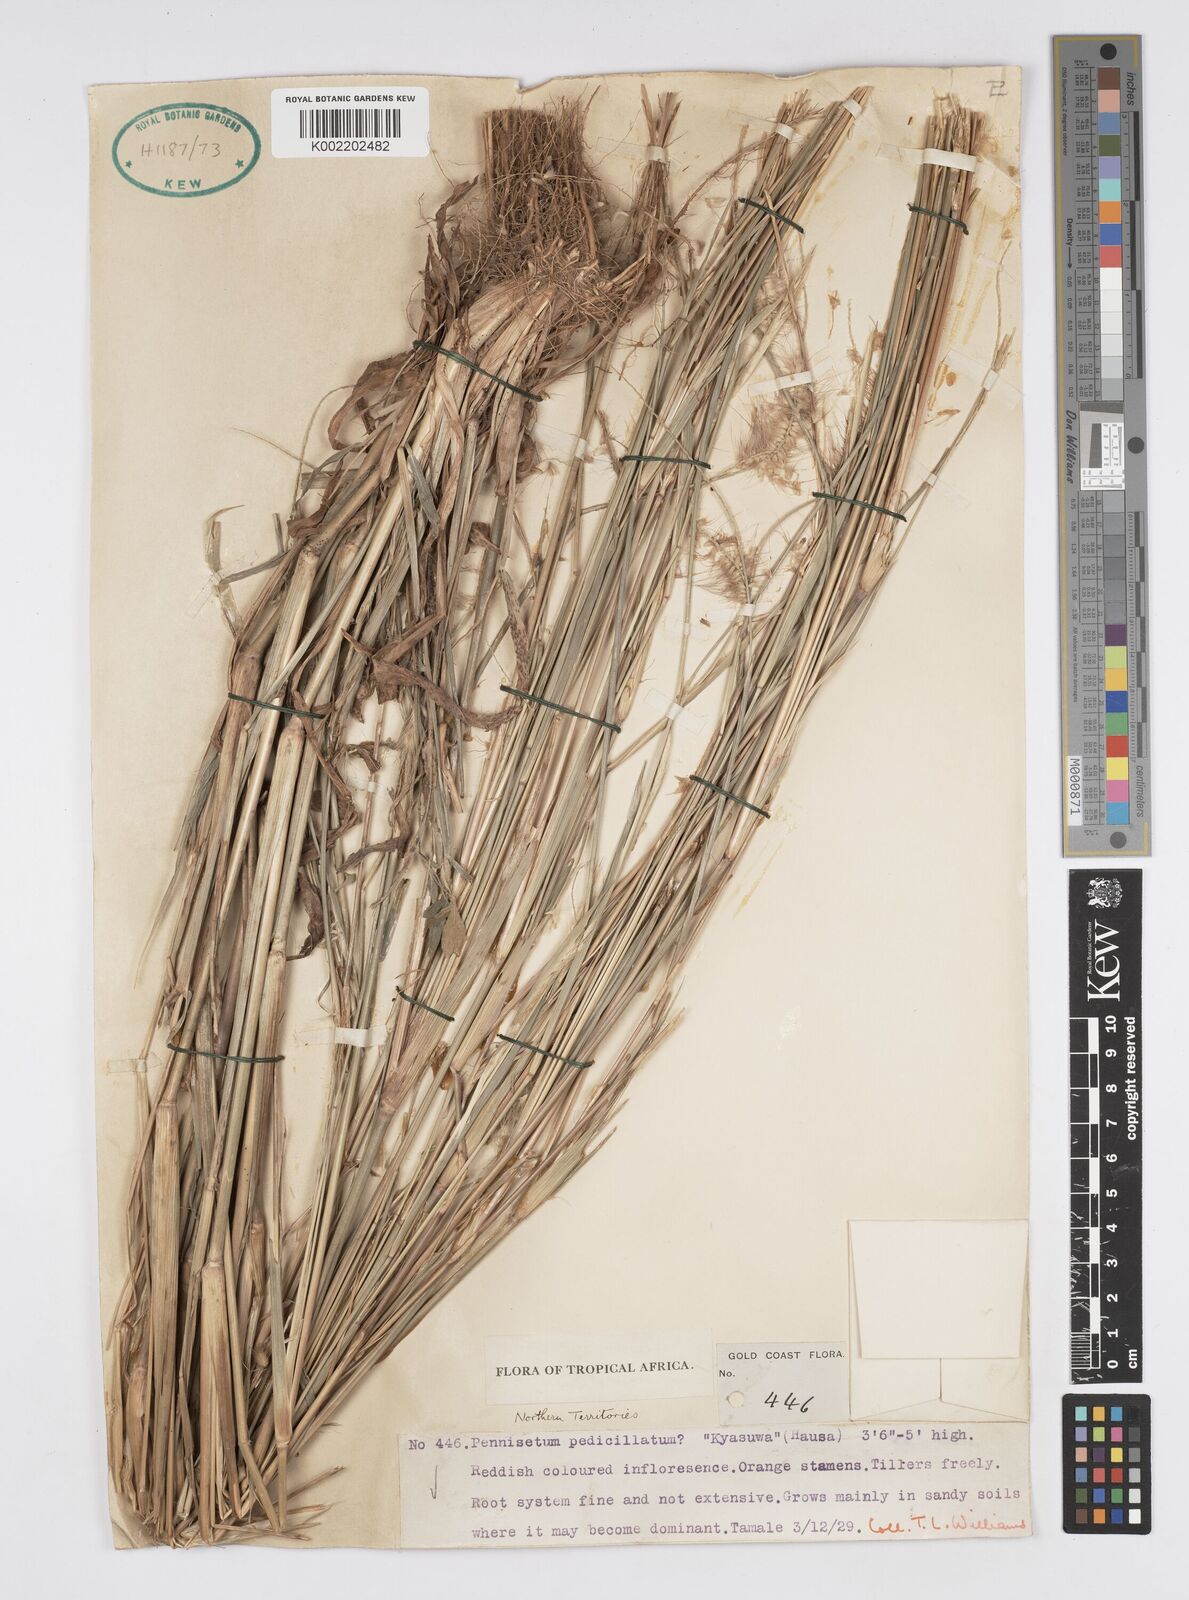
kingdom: Plantae
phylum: Tracheophyta
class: Liliopsida
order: Poales
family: Poaceae
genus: Setaria
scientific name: Setaria parviflora
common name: Knotroot bristle-grass
